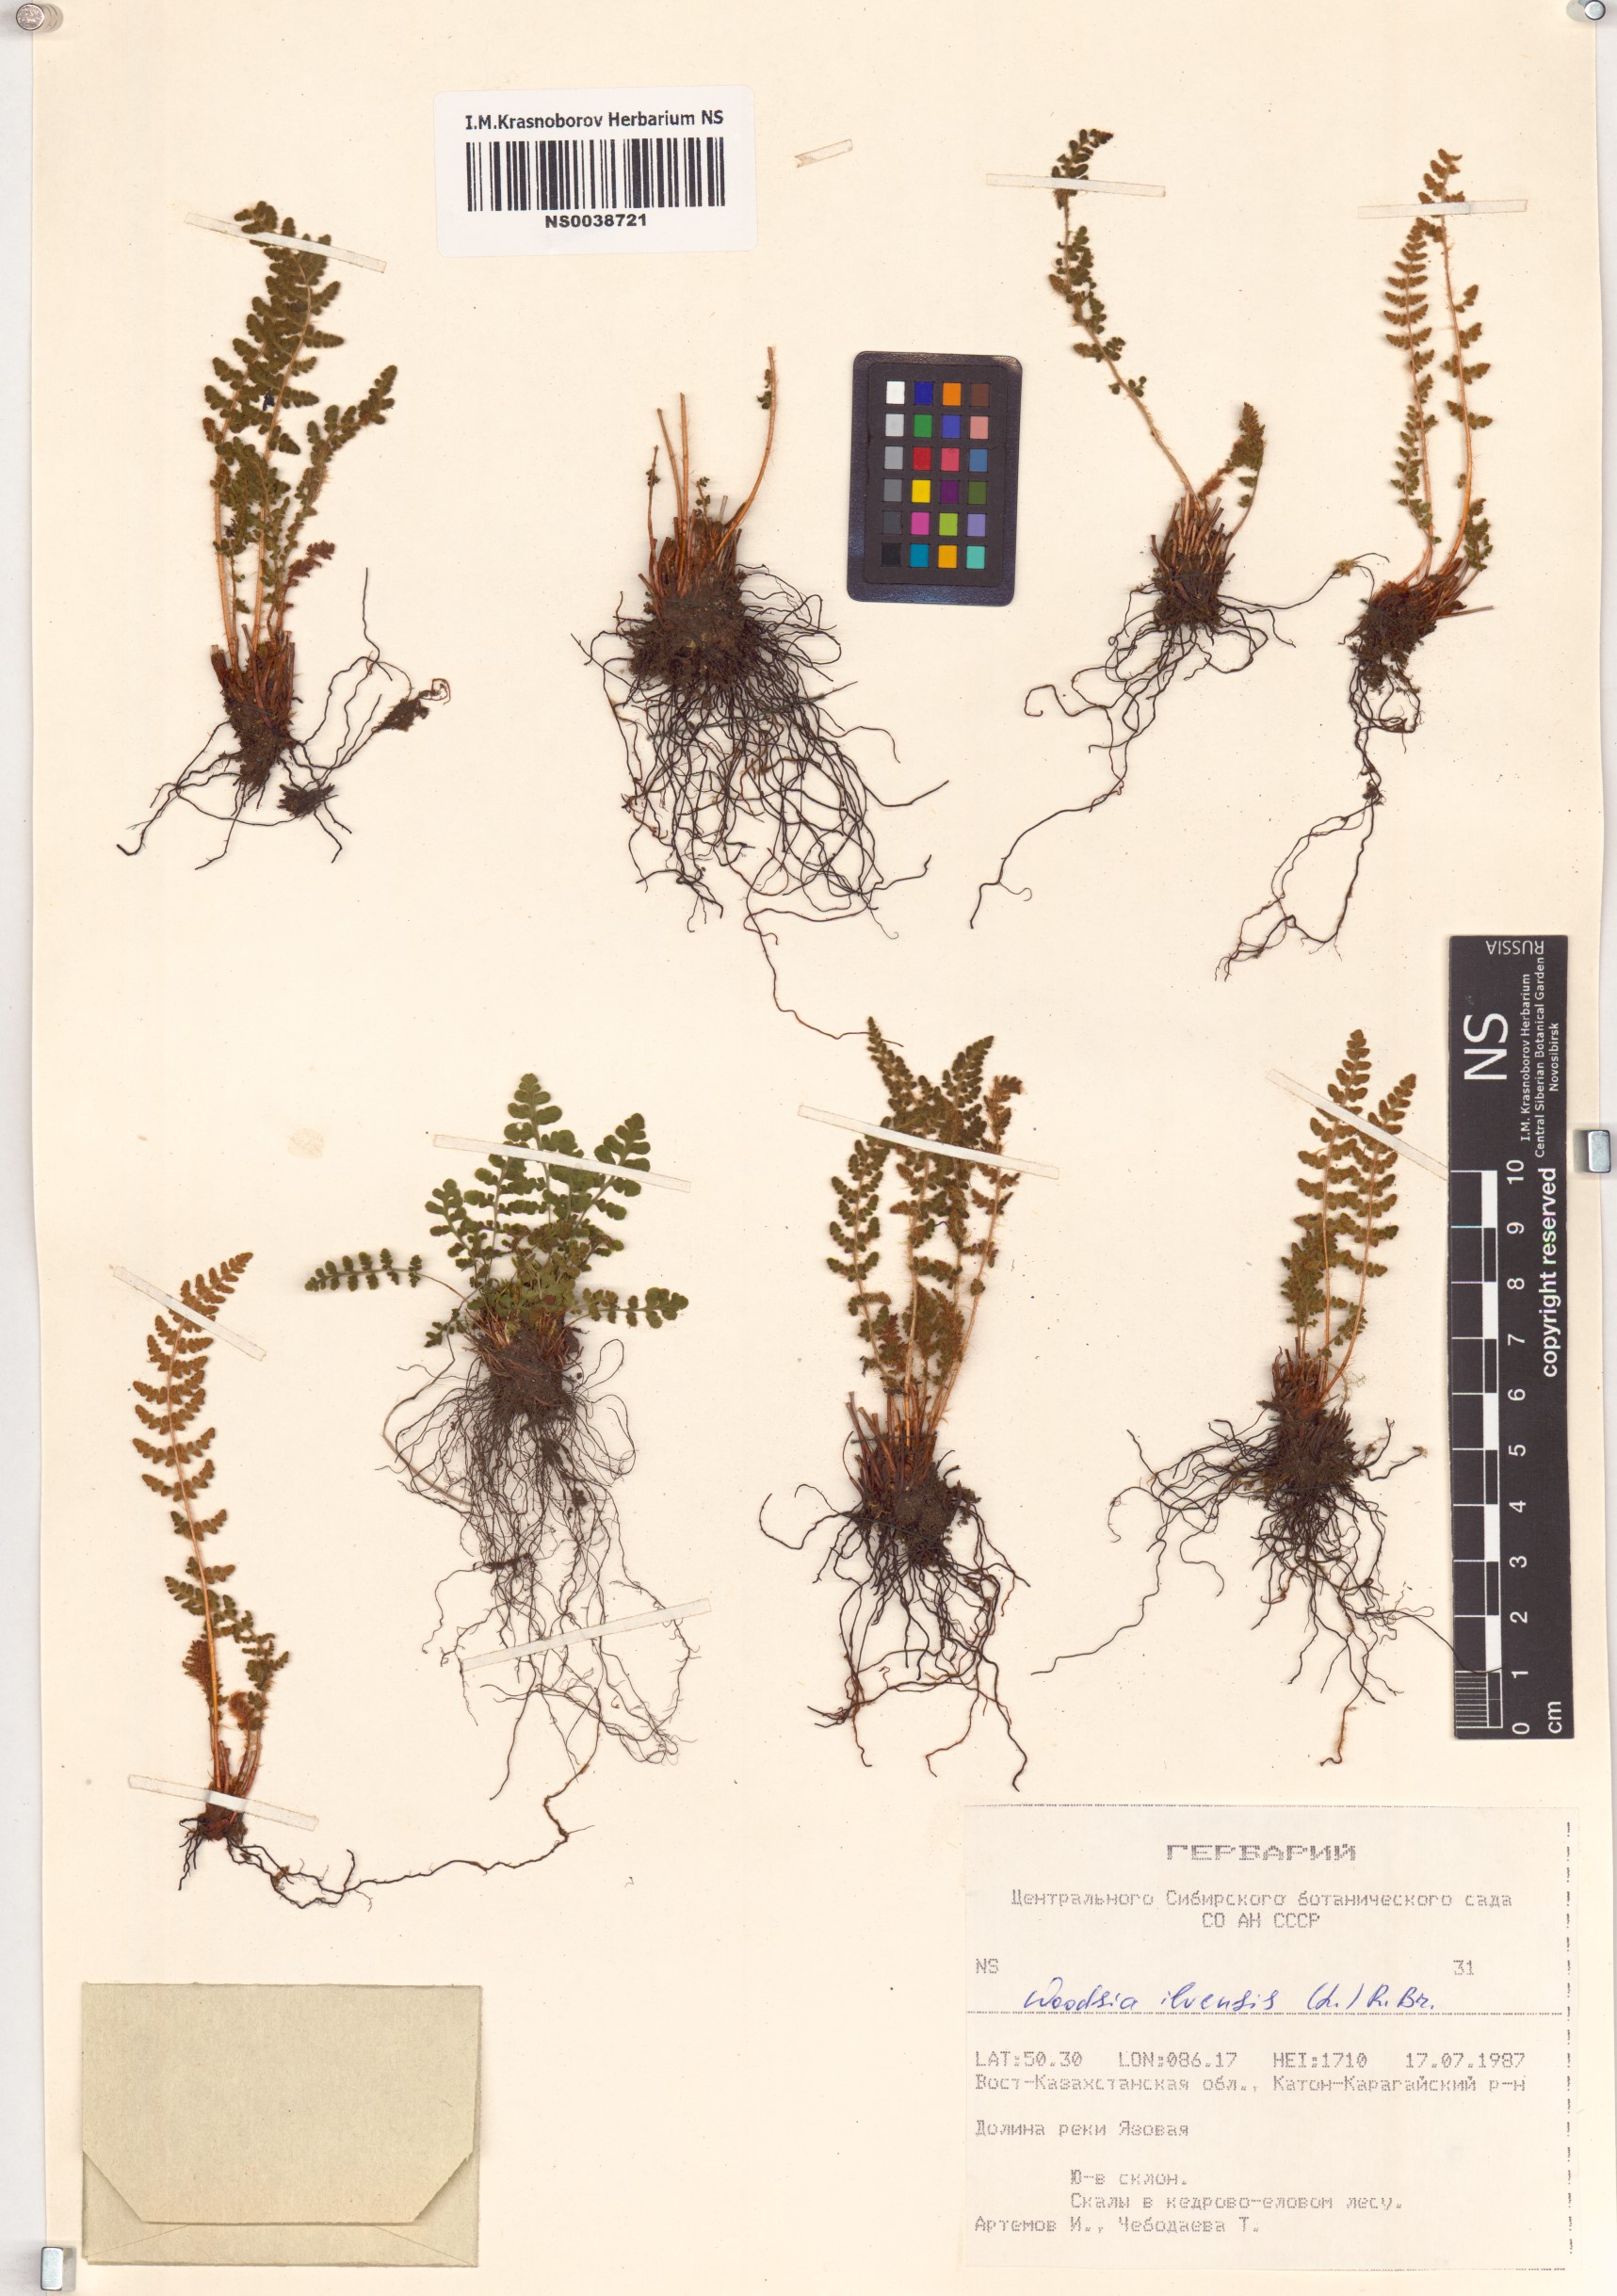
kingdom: Plantae
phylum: Tracheophyta
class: Polypodiopsida
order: Polypodiales
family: Woodsiaceae
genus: Woodsia
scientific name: Woodsia ilvensis
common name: Fragrant woodsia
